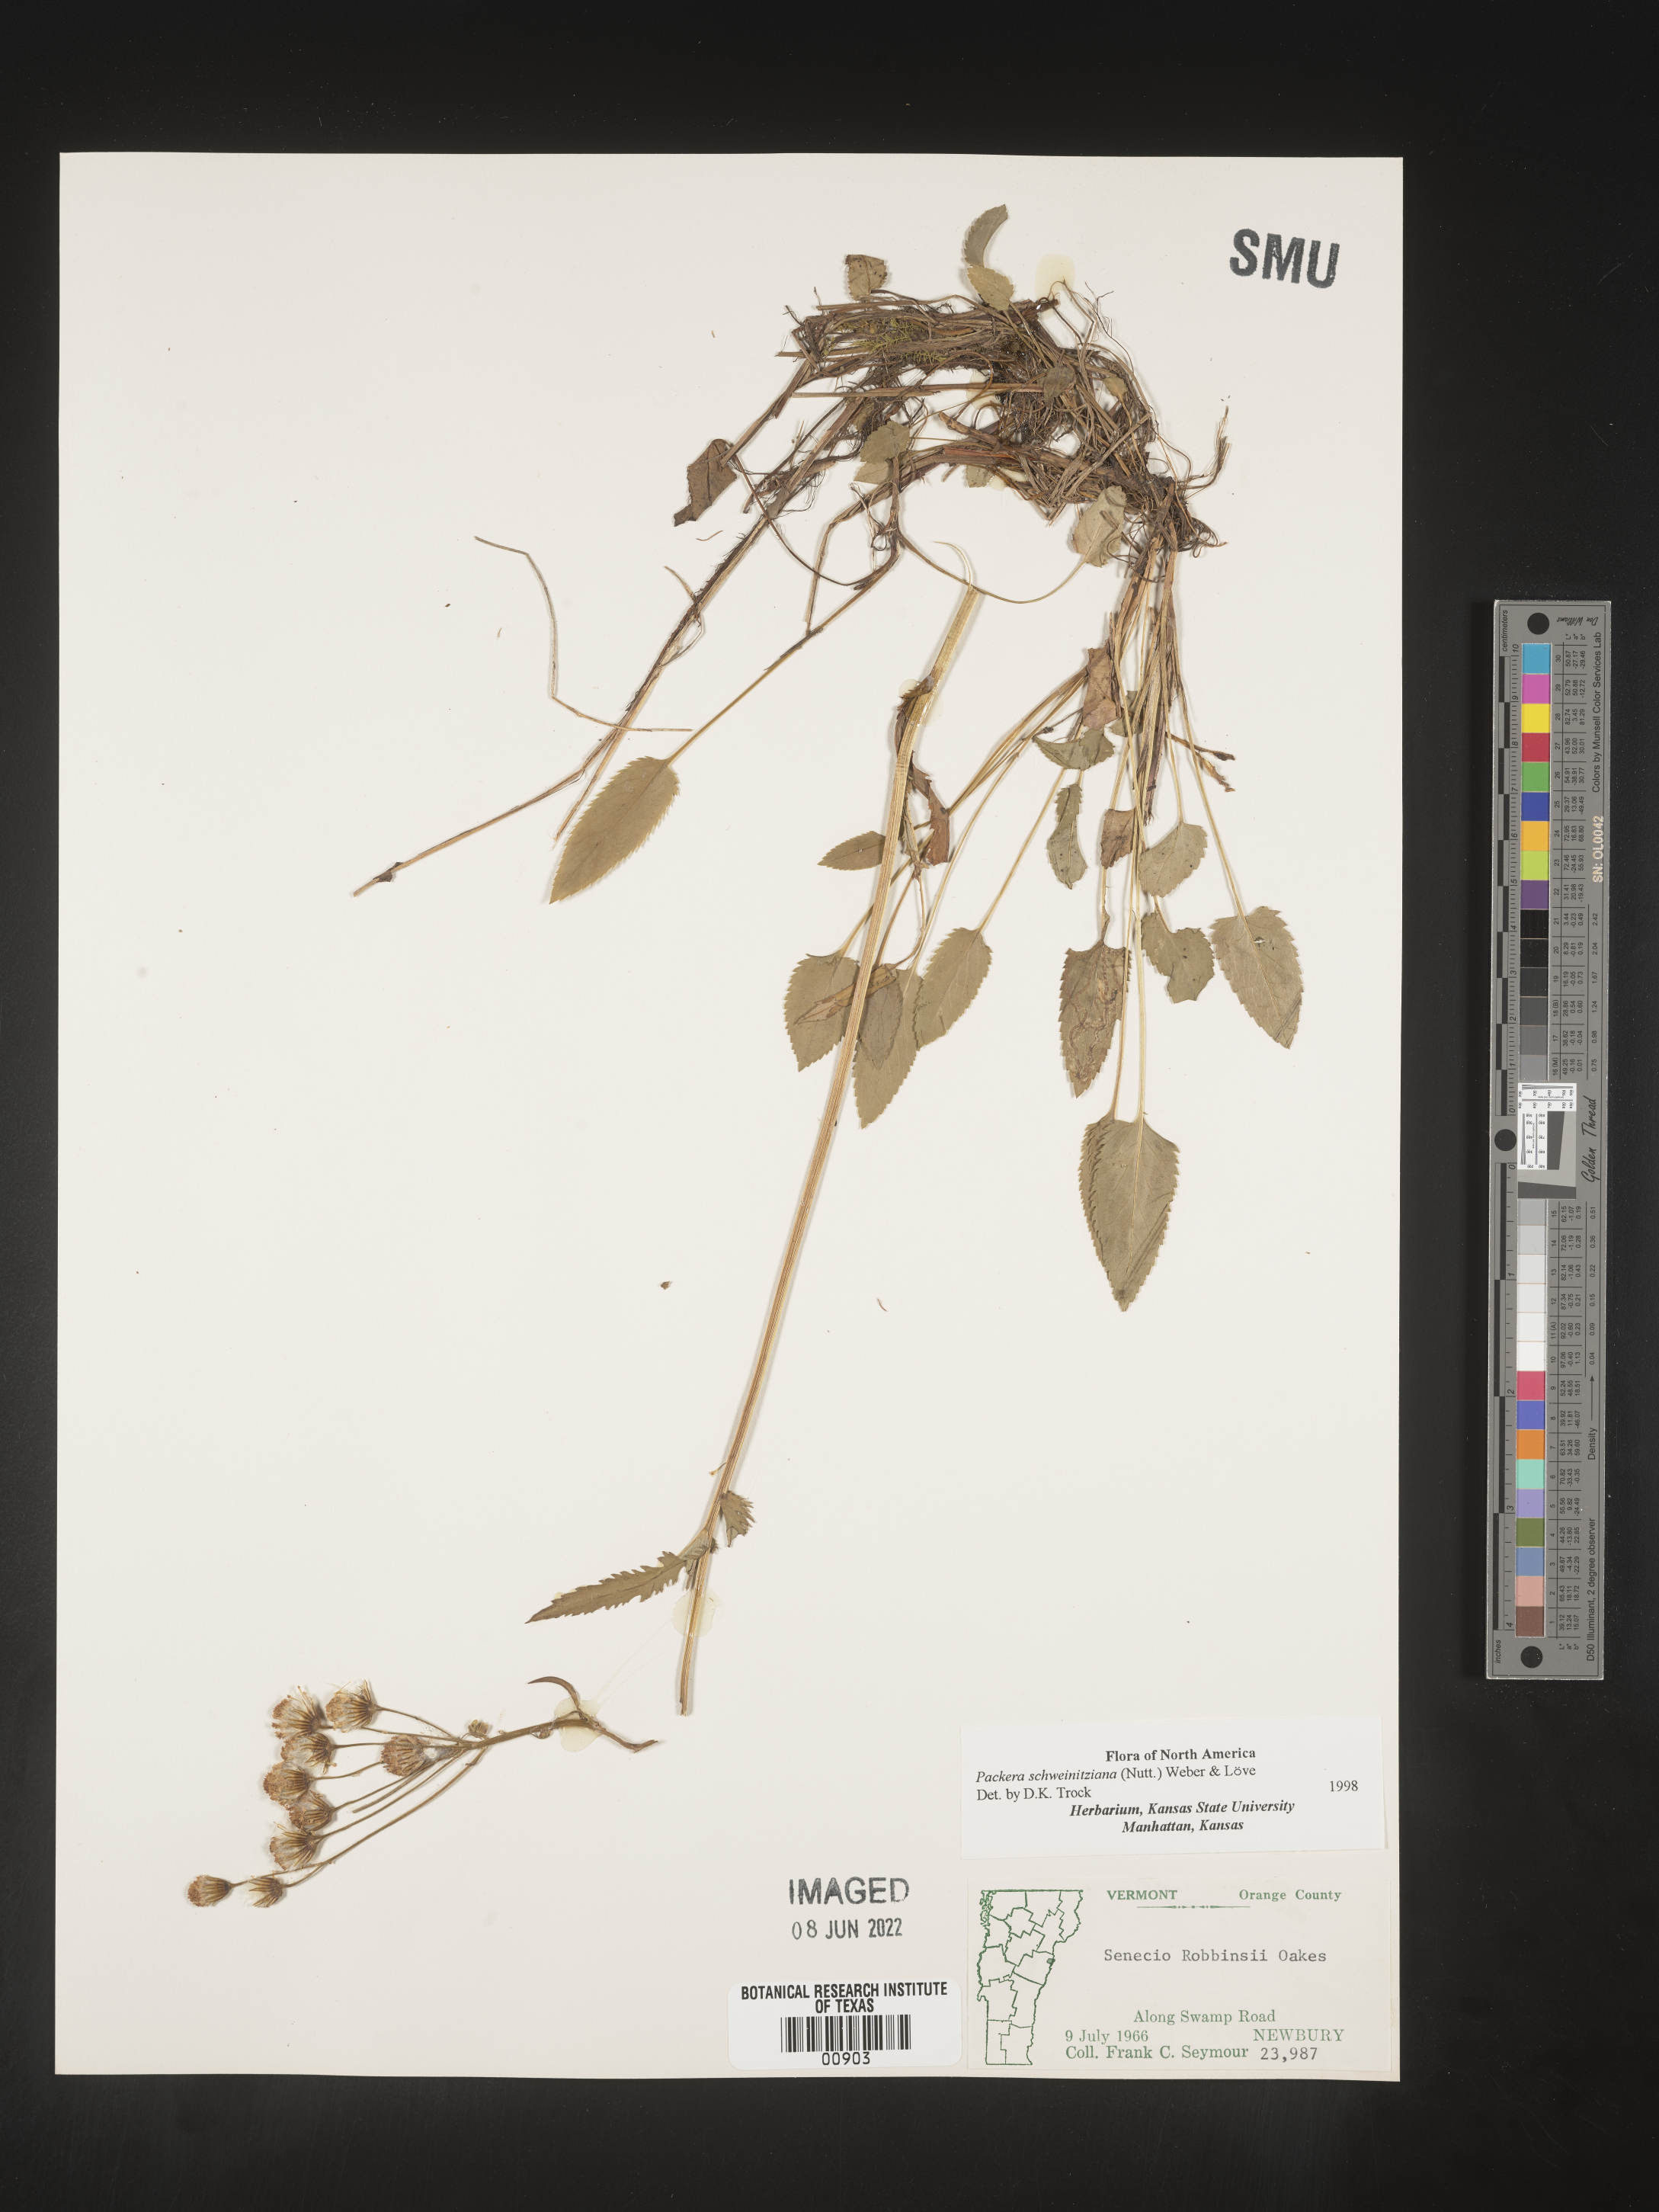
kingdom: Plantae
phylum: Tracheophyta
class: Magnoliopsida
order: Asterales
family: Asteraceae
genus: Packera
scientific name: Packera schweinitziana
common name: Schweinitz's ragwort
